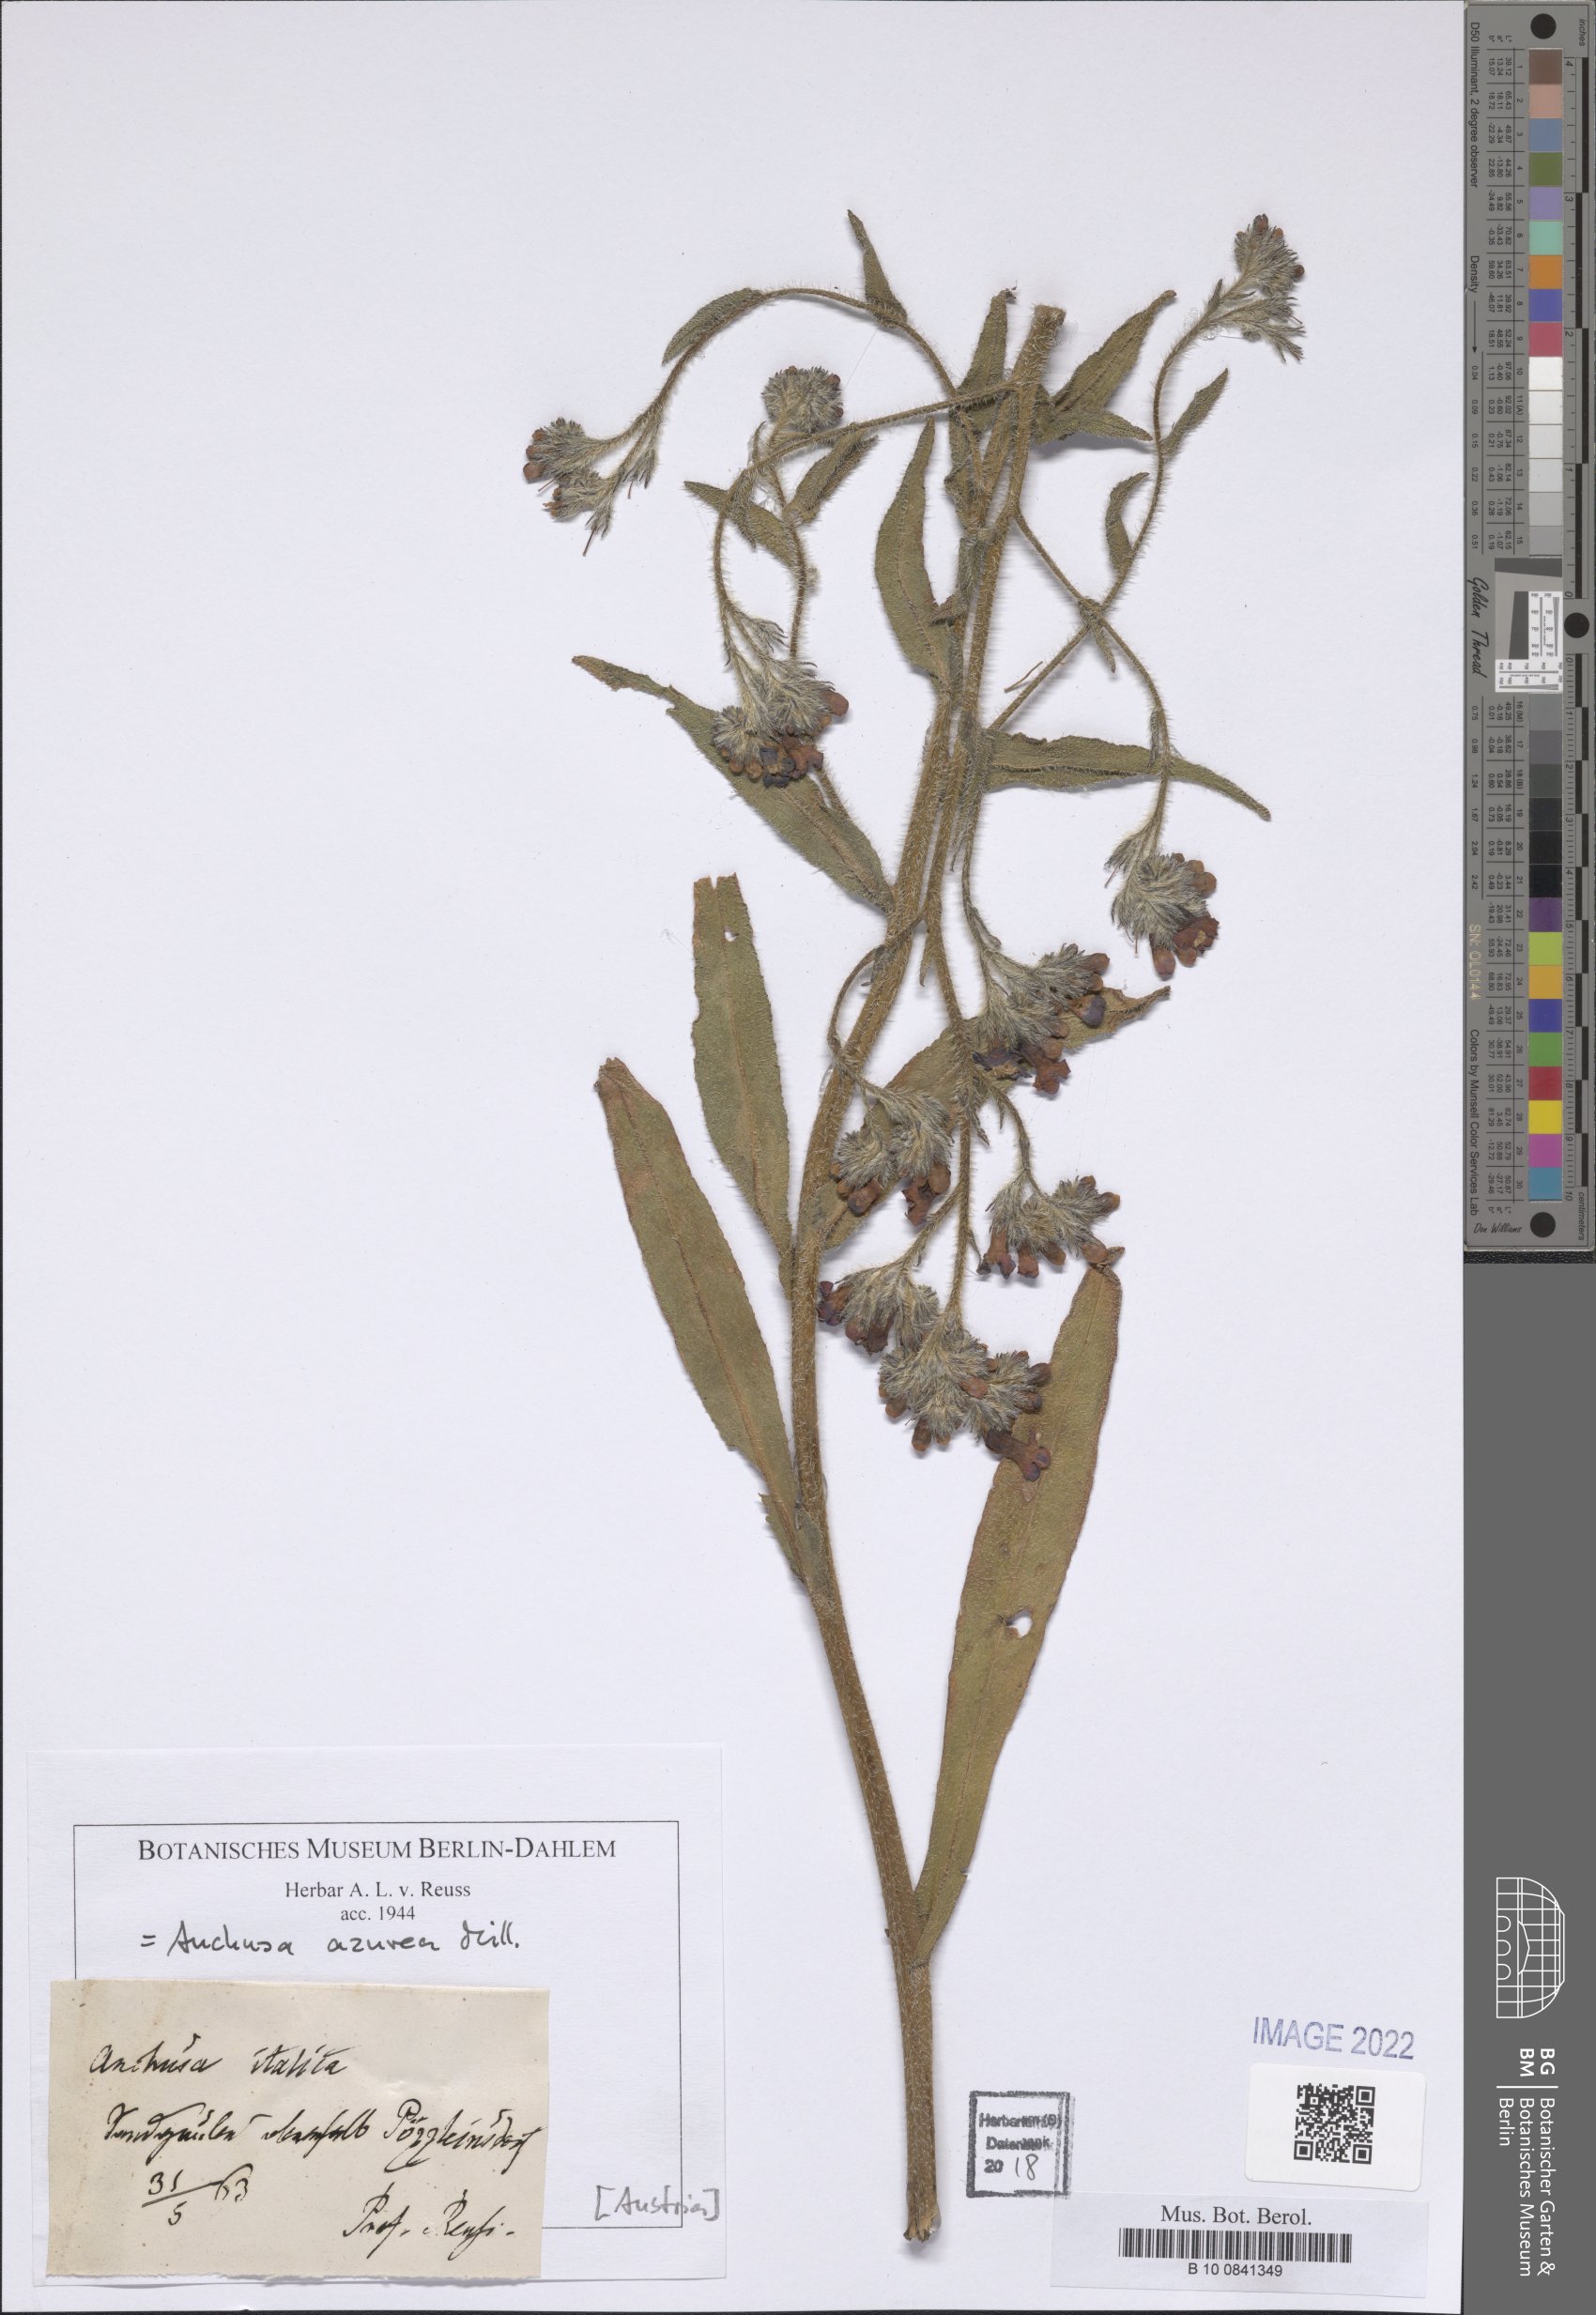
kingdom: Plantae
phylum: Tracheophyta
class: Magnoliopsida
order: Boraginales
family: Boraginaceae
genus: Anchusa
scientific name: Anchusa azurea
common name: Garden anchusa
